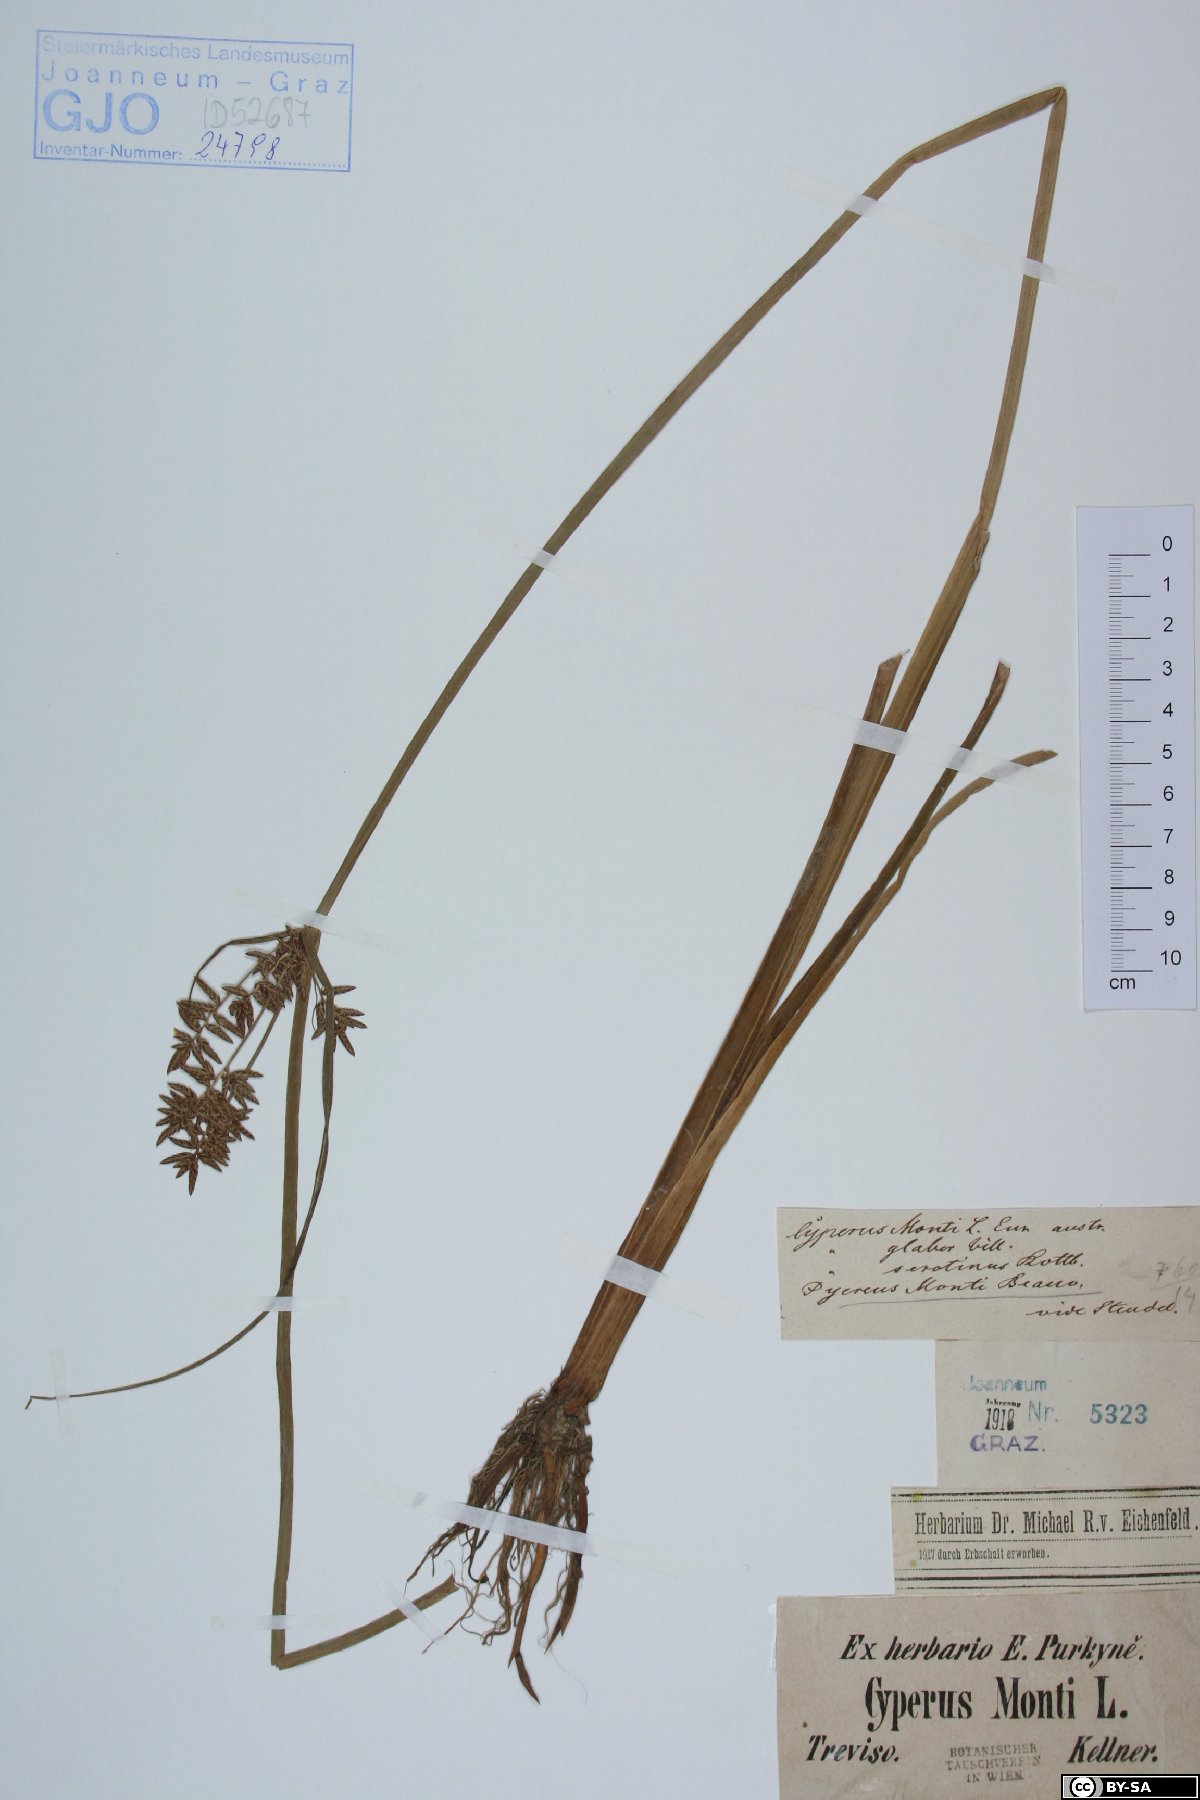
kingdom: Plantae
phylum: Tracheophyta
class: Liliopsida
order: Poales
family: Cyperaceae
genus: Cyperus
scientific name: Cyperus serotinus
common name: Tidalmarsh flatsedge
